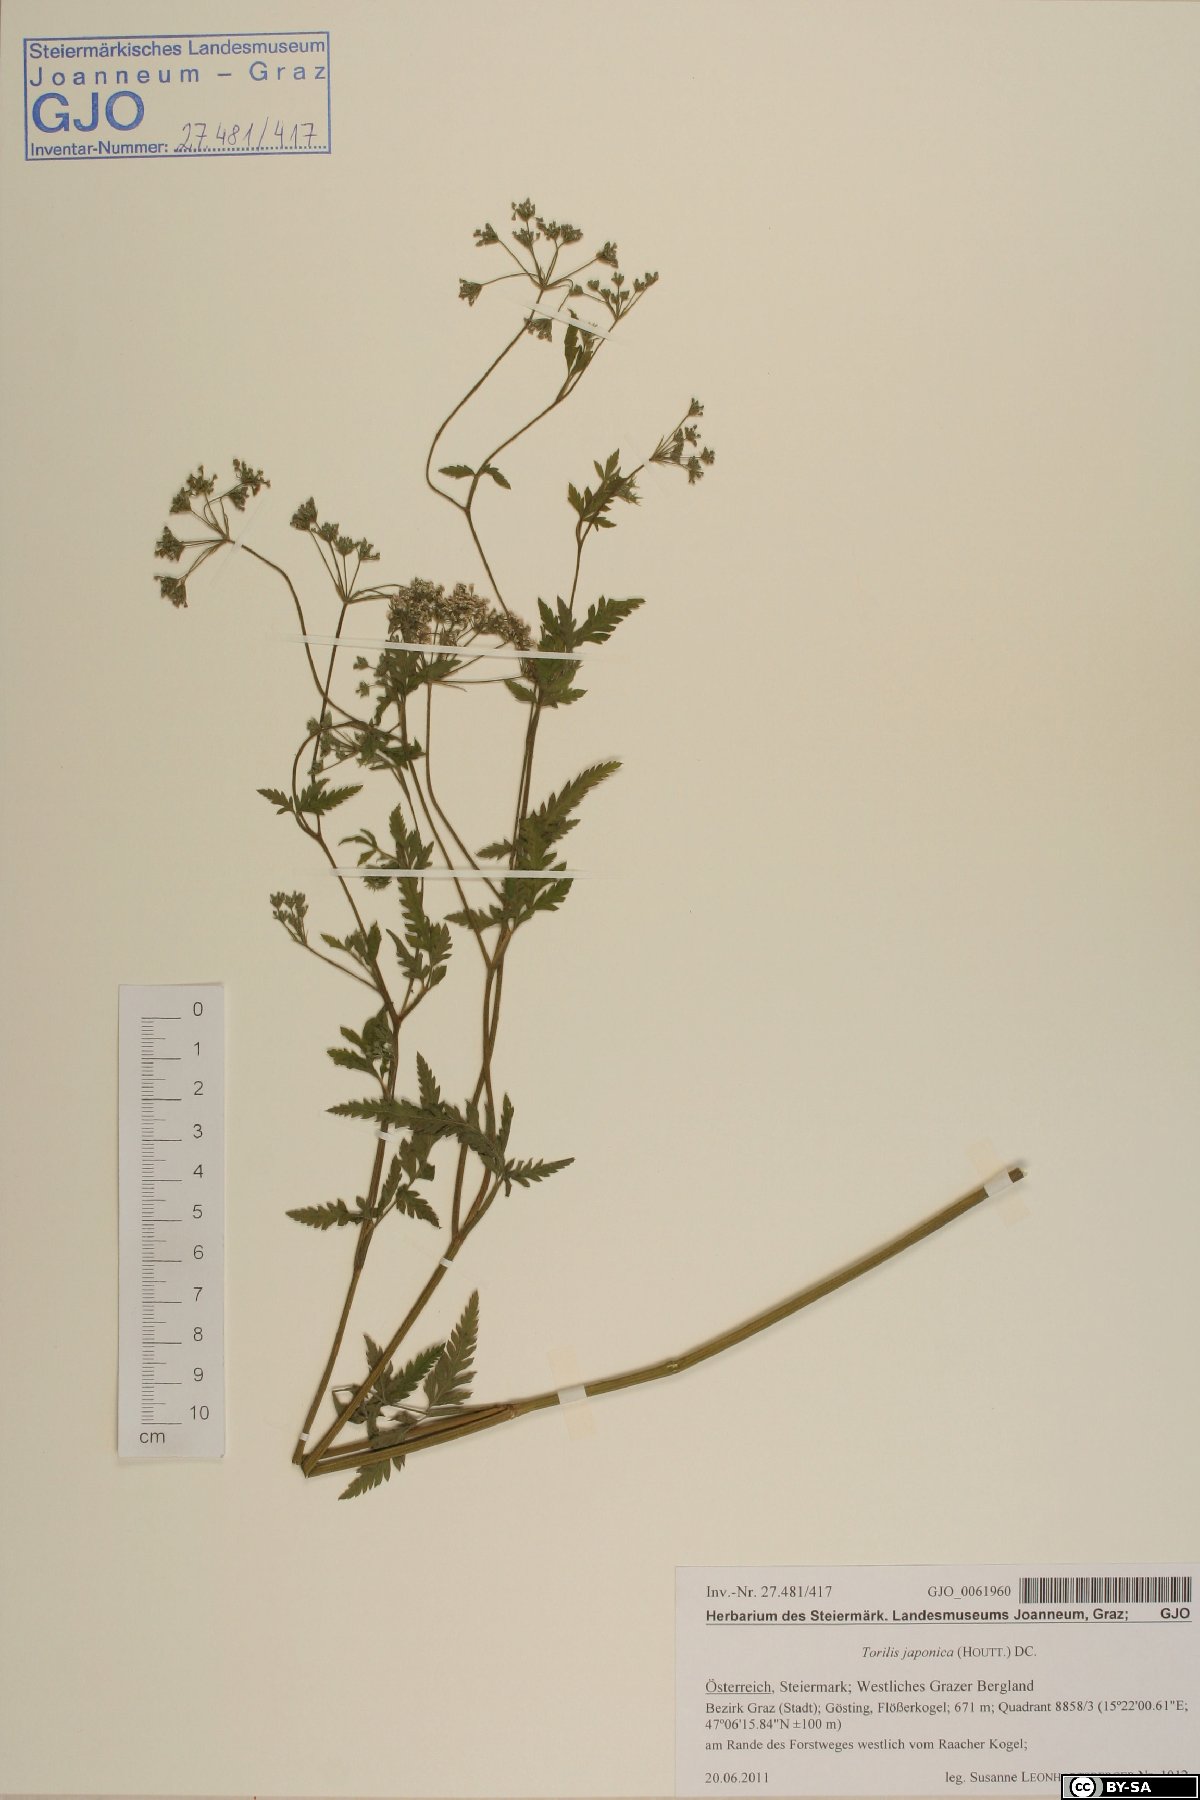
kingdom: Plantae
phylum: Tracheophyta
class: Magnoliopsida
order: Apiales
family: Apiaceae
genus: Torilis
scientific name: Torilis japonica
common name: Upright hedge-parsley
